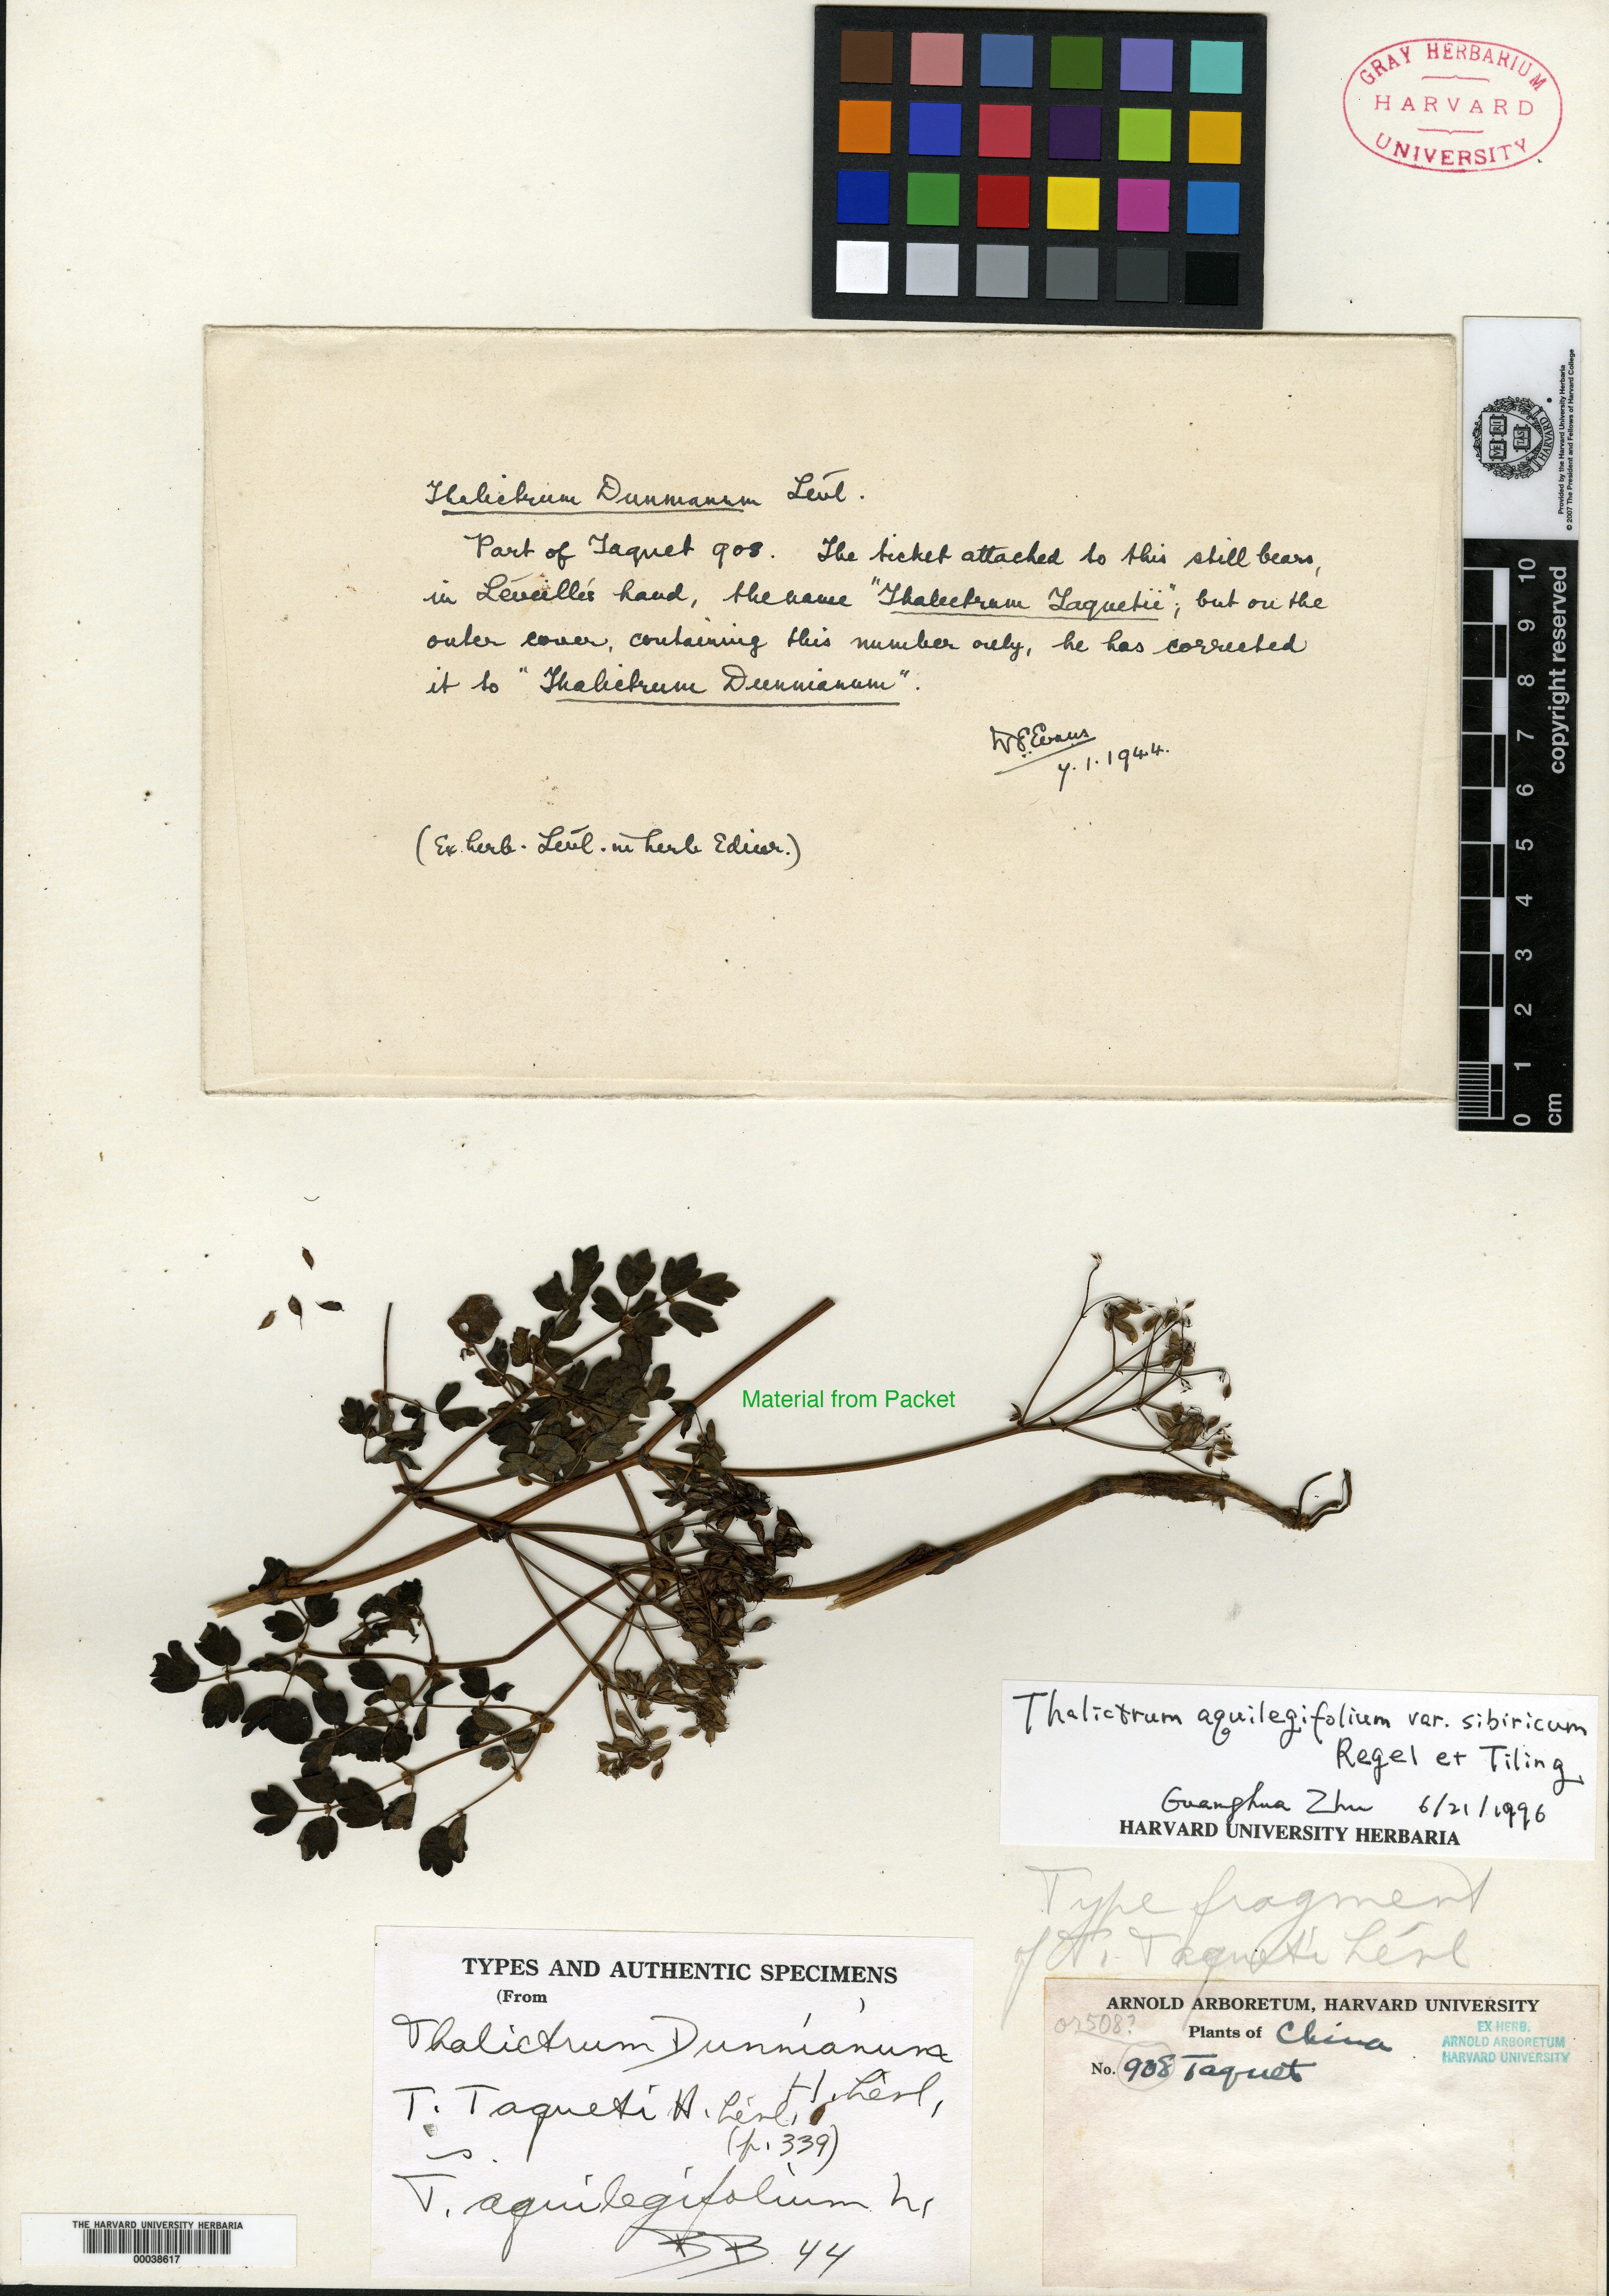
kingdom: Plantae
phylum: Tracheophyta
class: Magnoliopsida
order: Asterales
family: Asteraceae
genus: Artemisia
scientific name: Artemisia gmelinii
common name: Gmelin's wormwood
